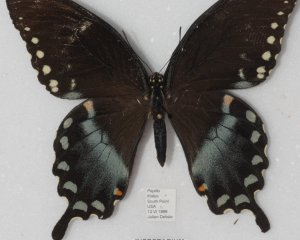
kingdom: Animalia
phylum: Arthropoda
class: Insecta
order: Lepidoptera
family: Papilionidae
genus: Pterourus
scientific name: Pterourus troilus
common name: Spicebush Swallowtail
